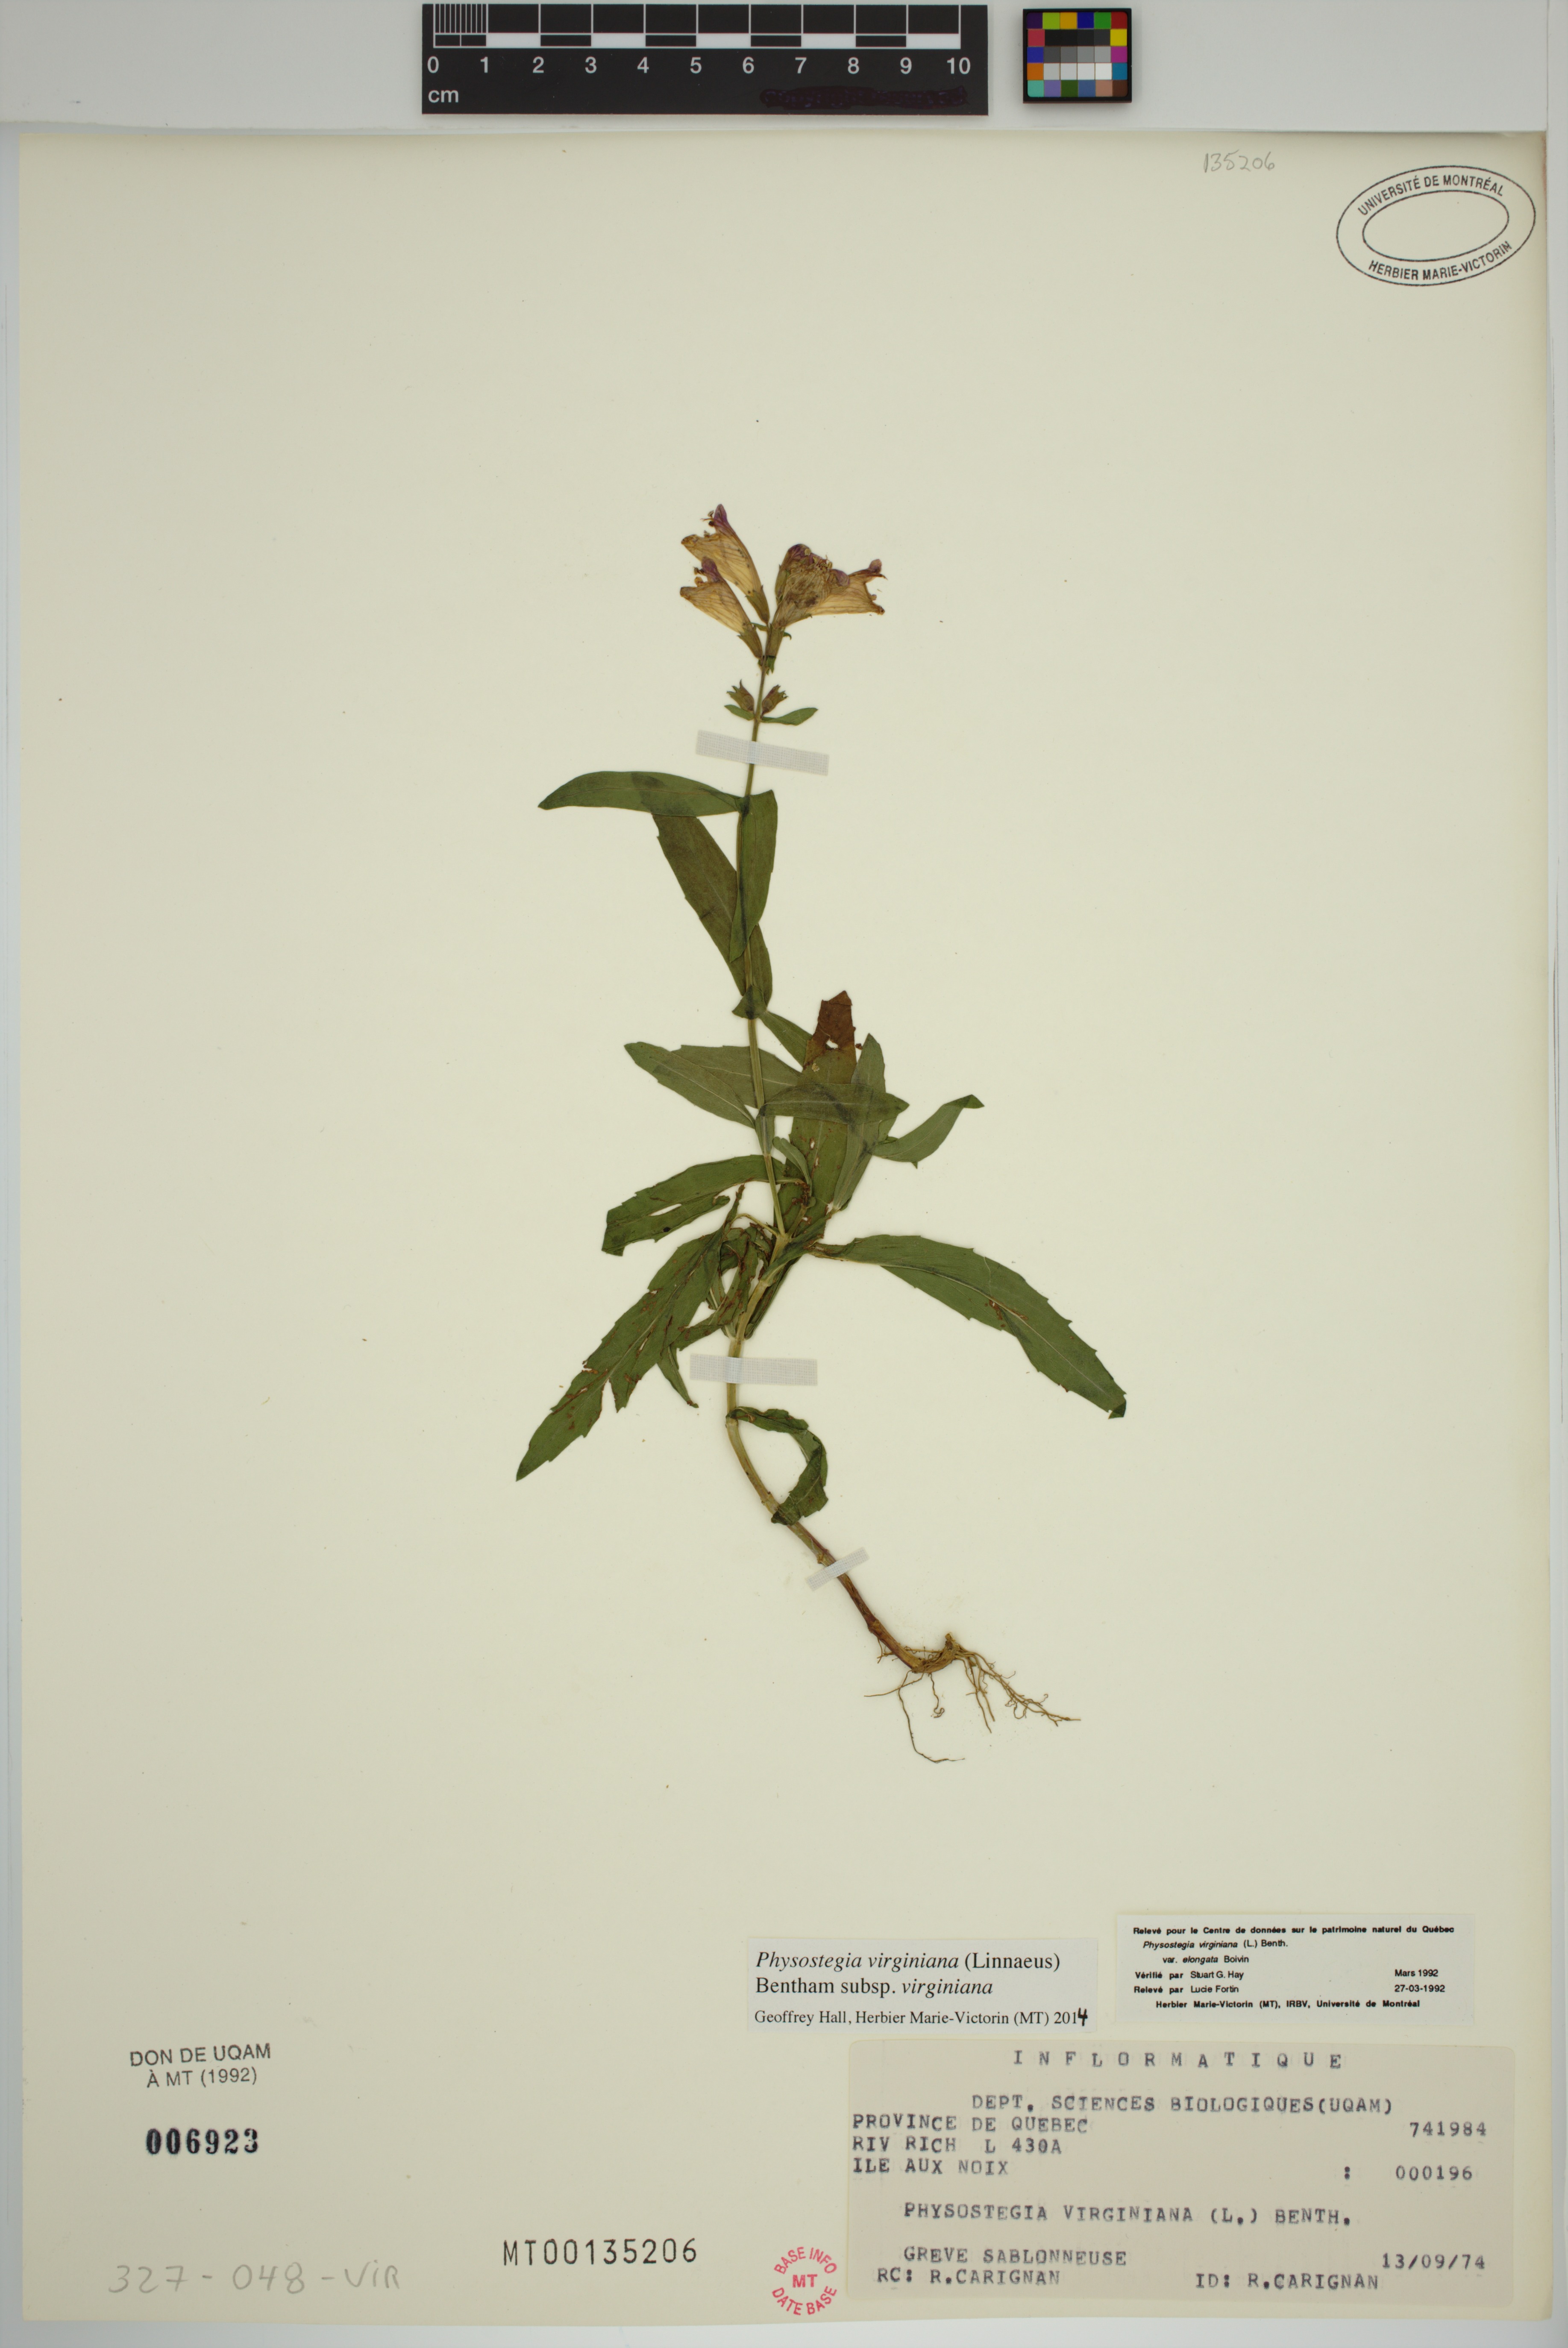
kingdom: Plantae
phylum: Tracheophyta
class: Magnoliopsida
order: Lamiales
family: Lamiaceae
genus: Physostegia
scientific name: Physostegia virginiana
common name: Obedient-plant
